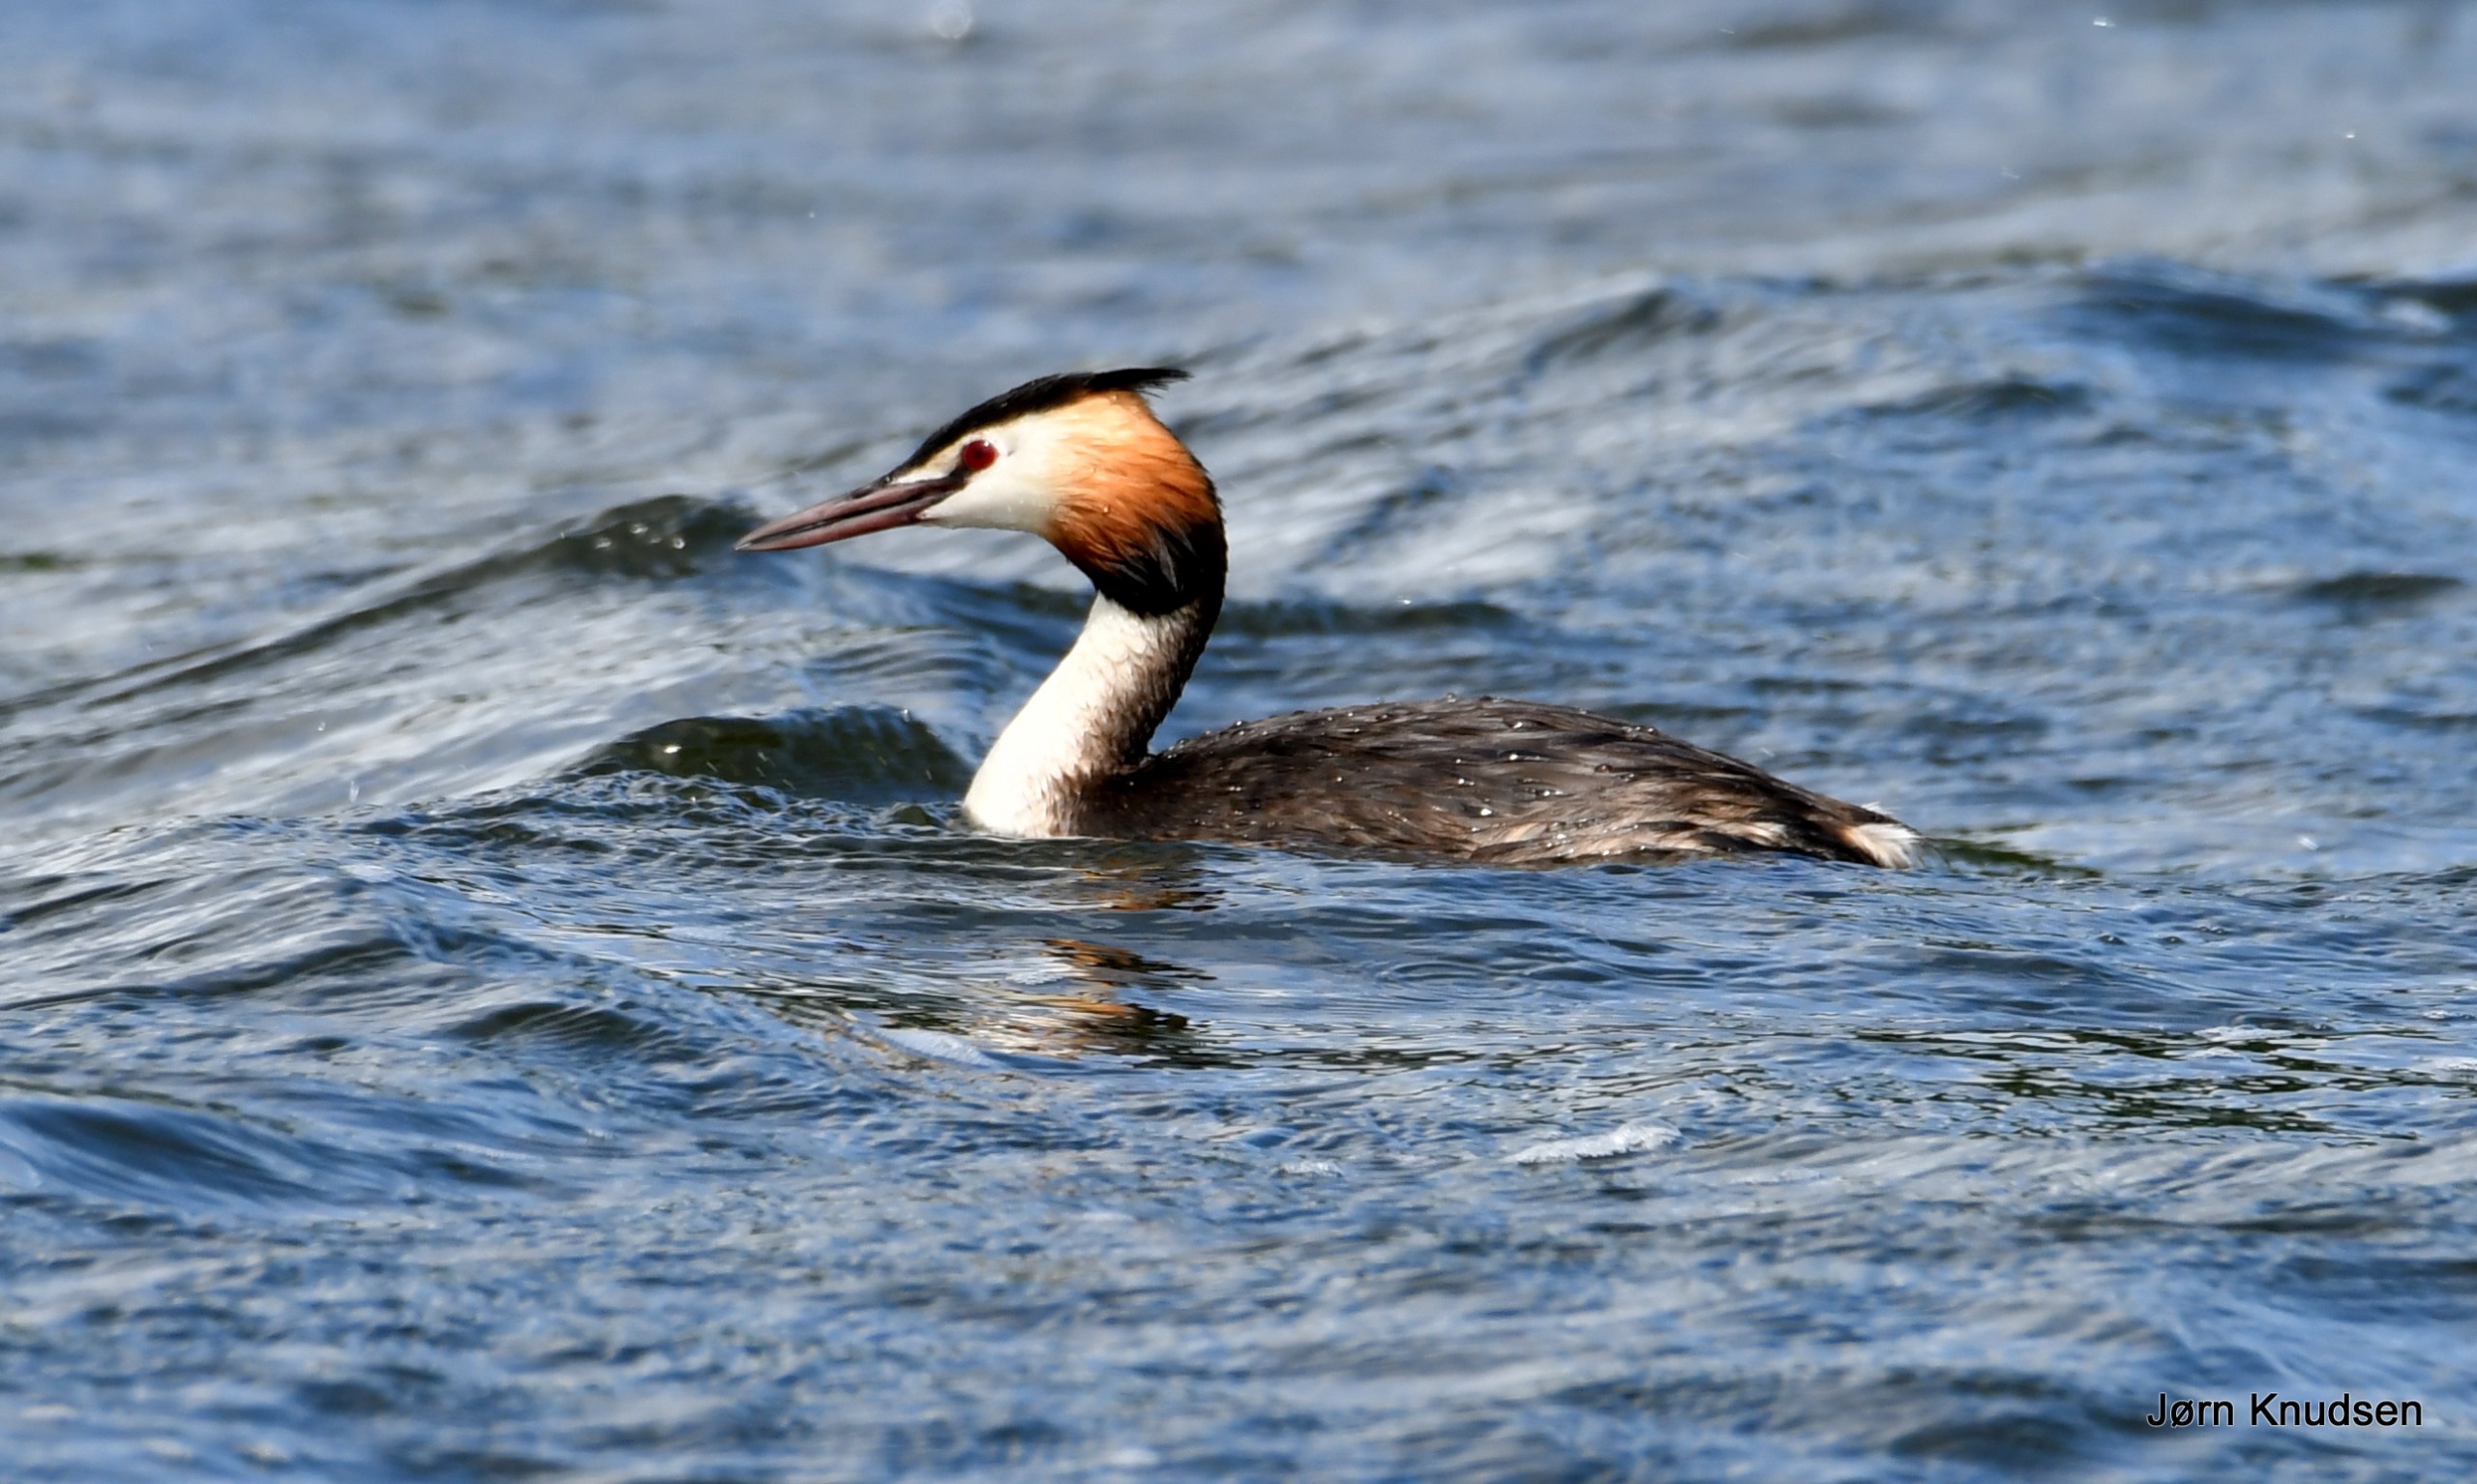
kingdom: Animalia
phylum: Chordata
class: Aves
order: Podicipediformes
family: Podicipedidae
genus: Podiceps
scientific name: Podiceps cristatus
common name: Toppet lappedykker
